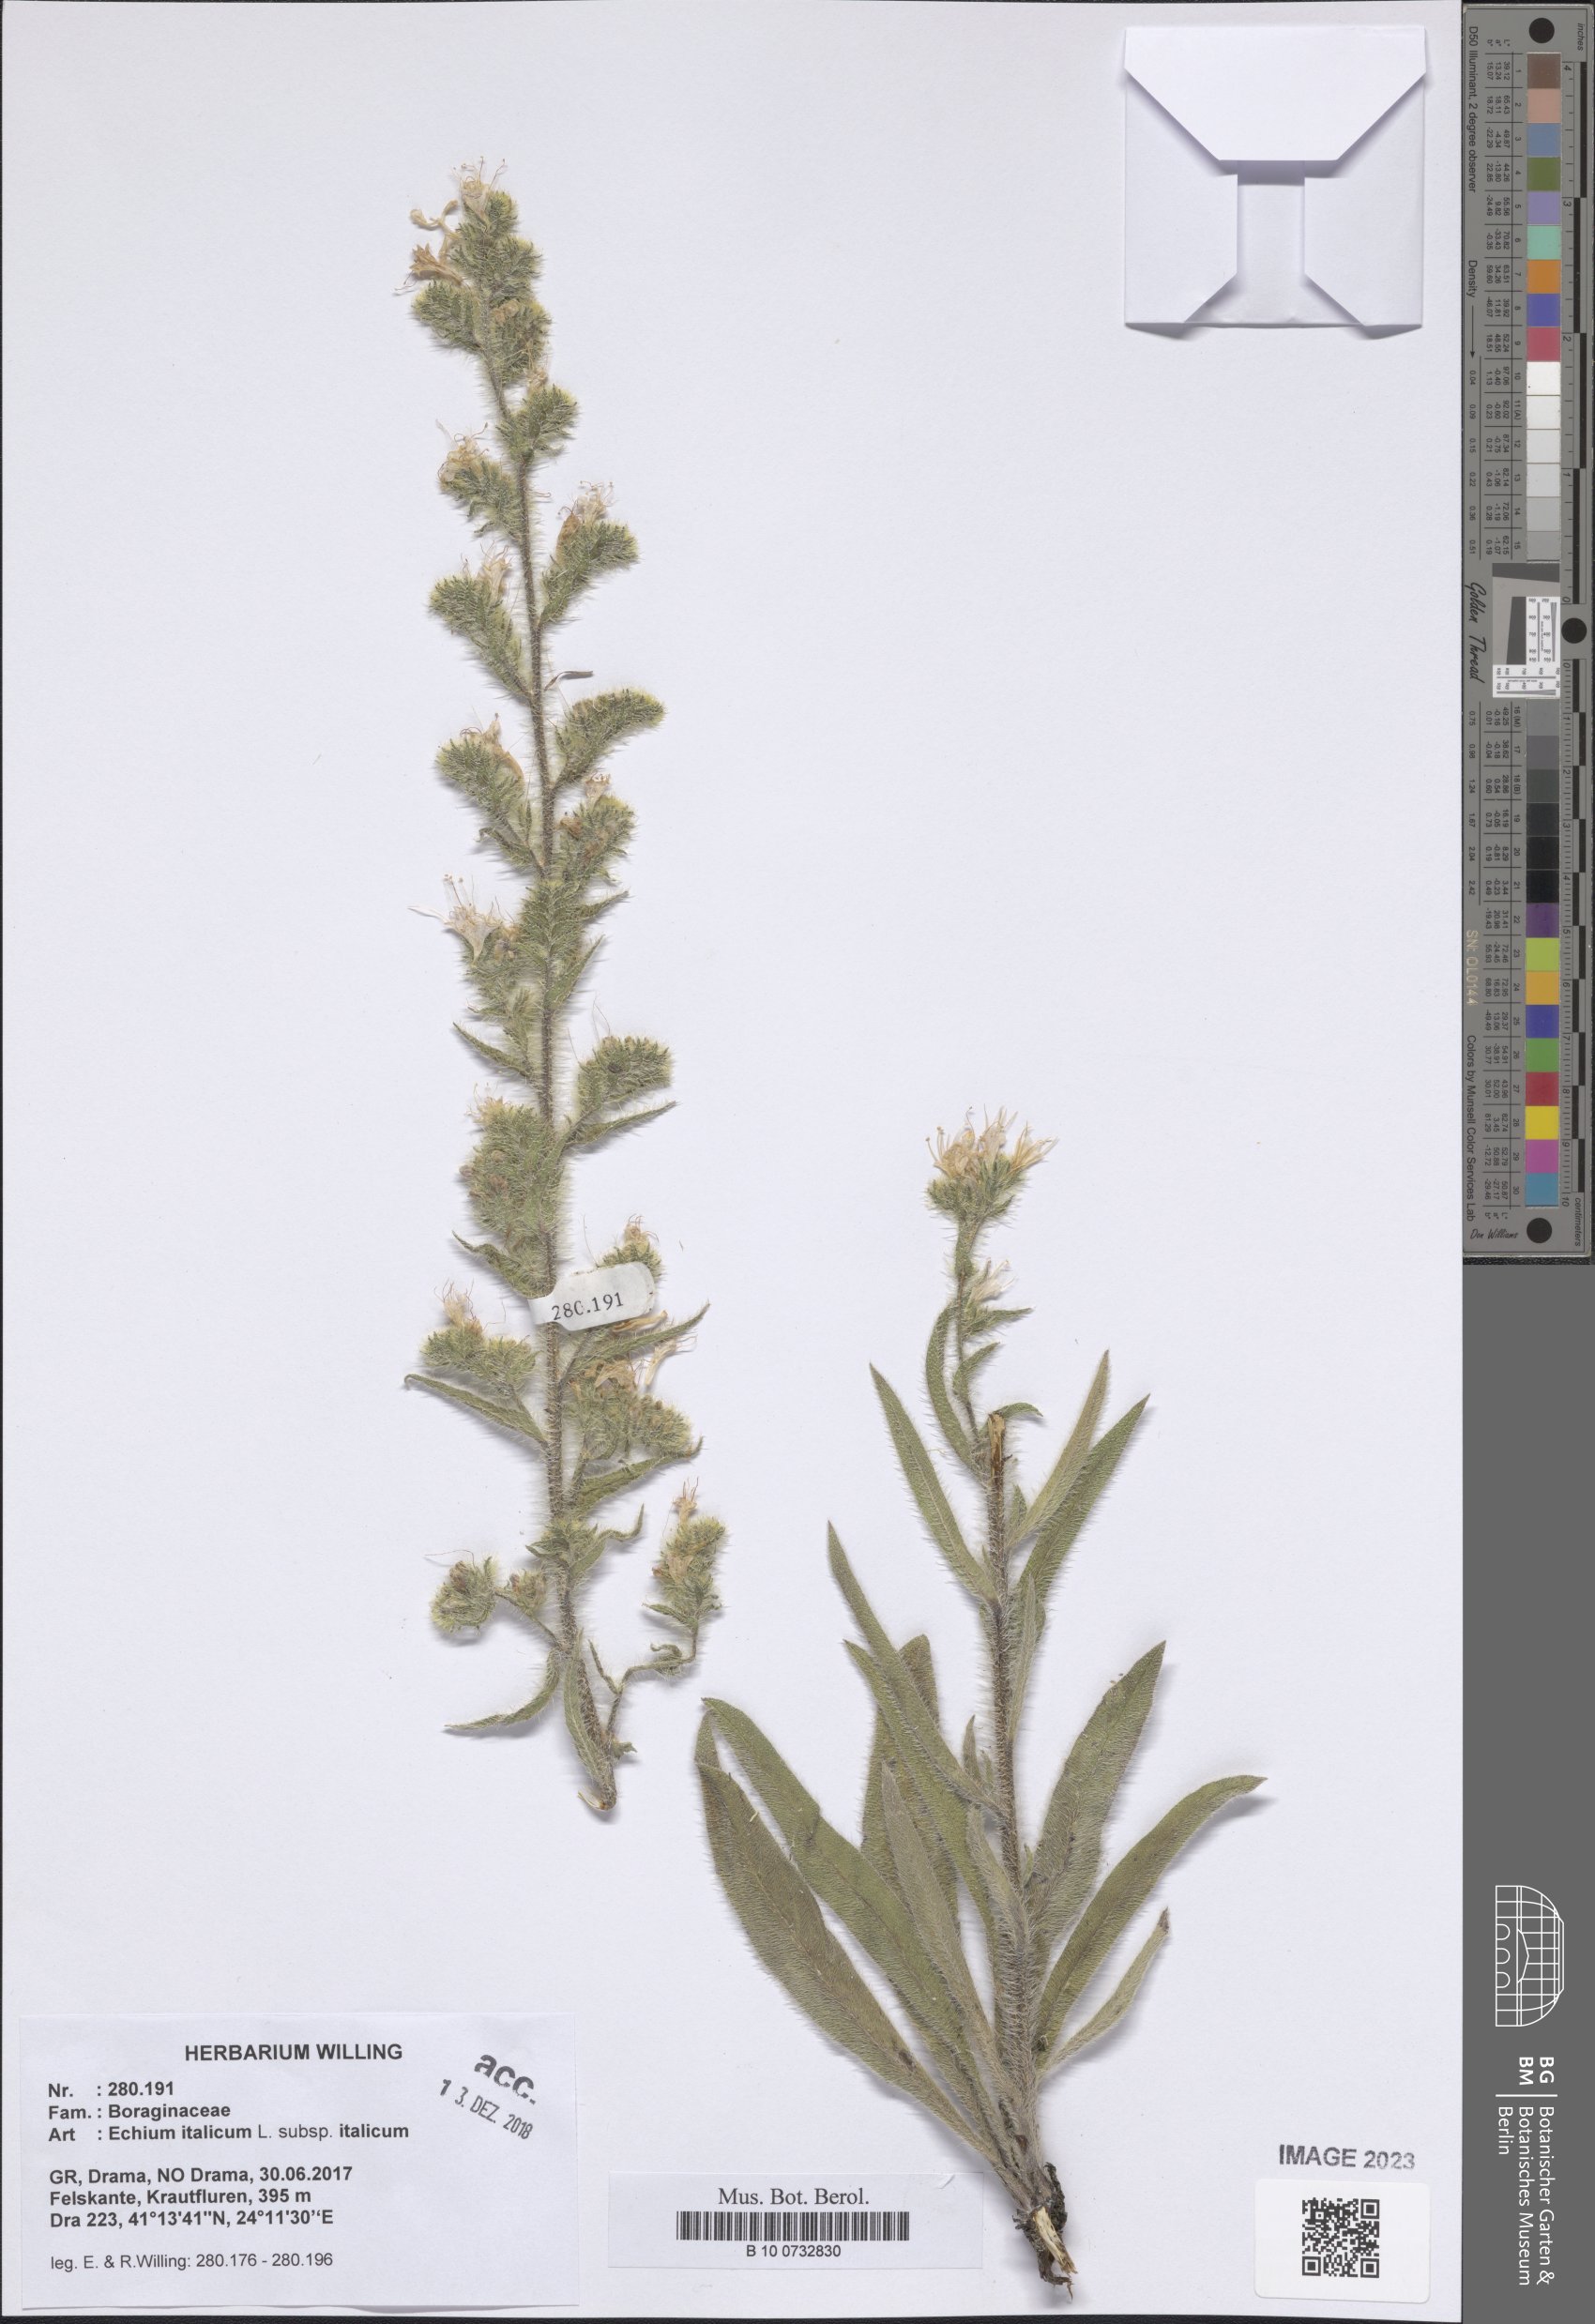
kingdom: Plantae
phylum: Tracheophyta
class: Magnoliopsida
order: Boraginales
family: Boraginaceae
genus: Echium
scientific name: Echium italicum
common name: Italian viper's bugloss
